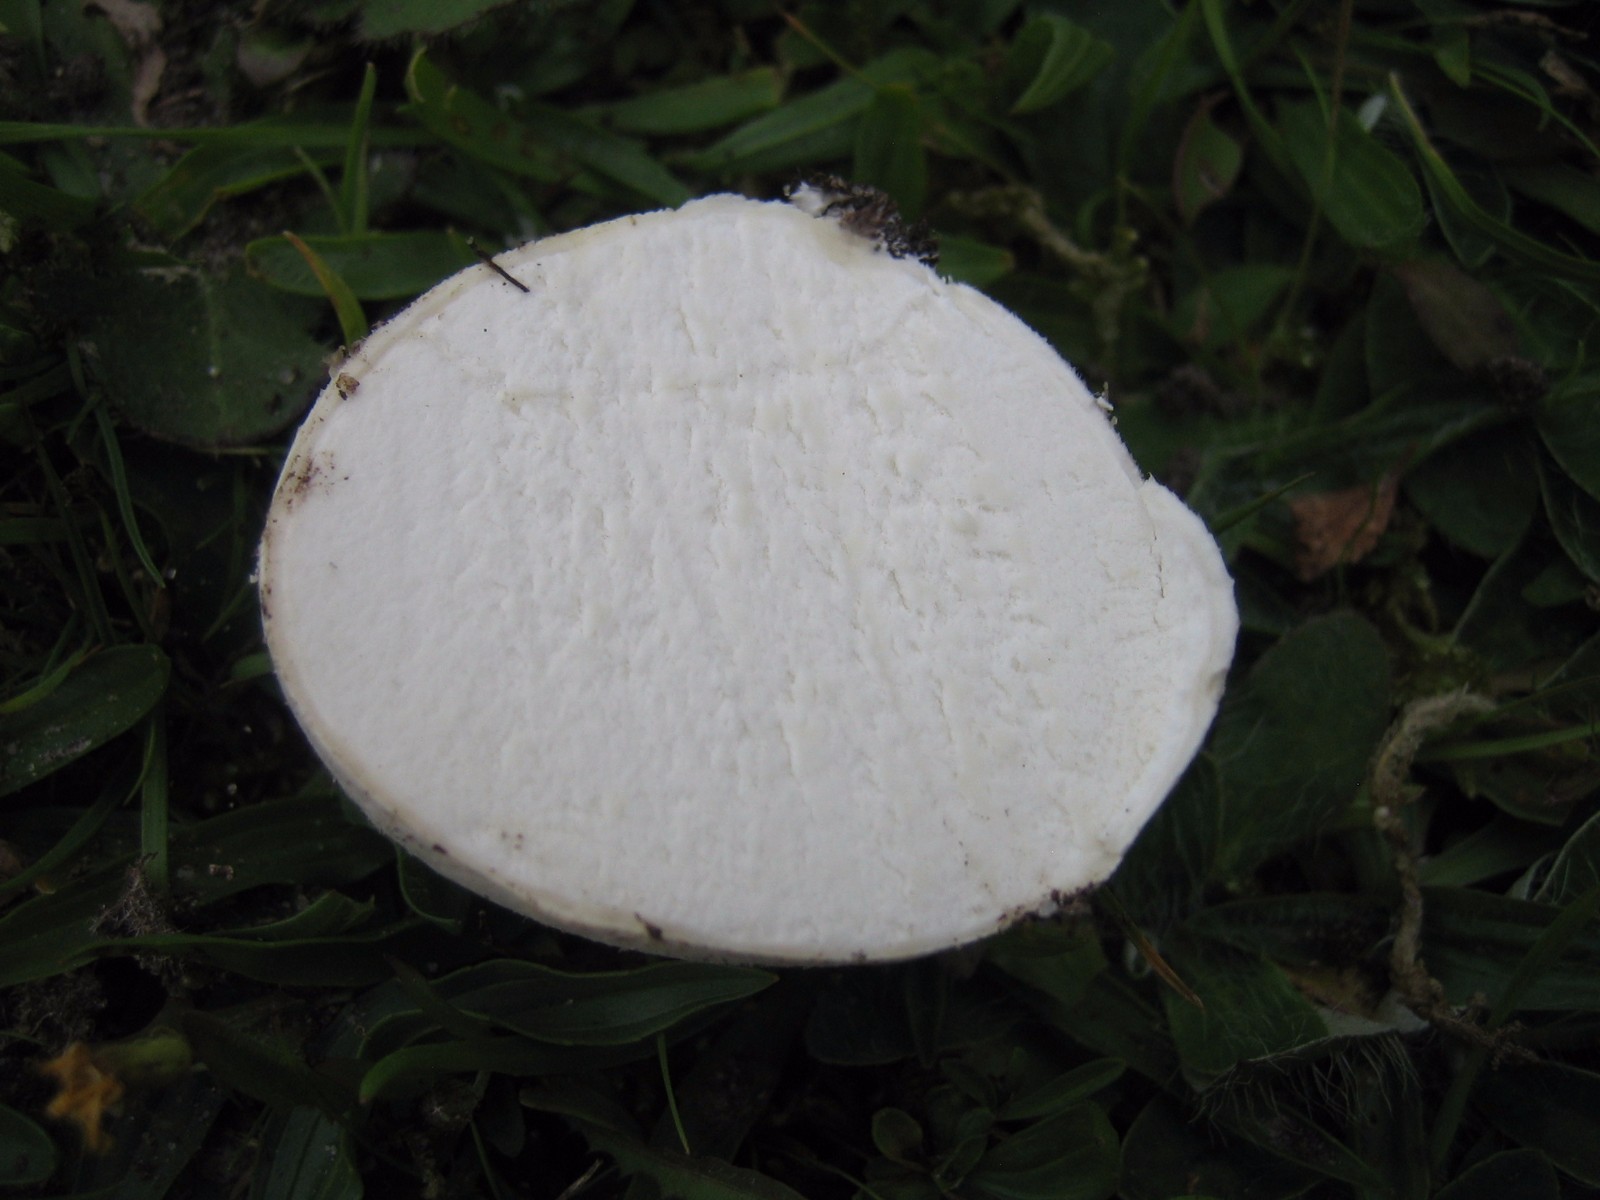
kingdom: Fungi
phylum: Basidiomycota
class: Agaricomycetes
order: Agaricales
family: Lycoperdaceae
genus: Bovista
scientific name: Bovista
